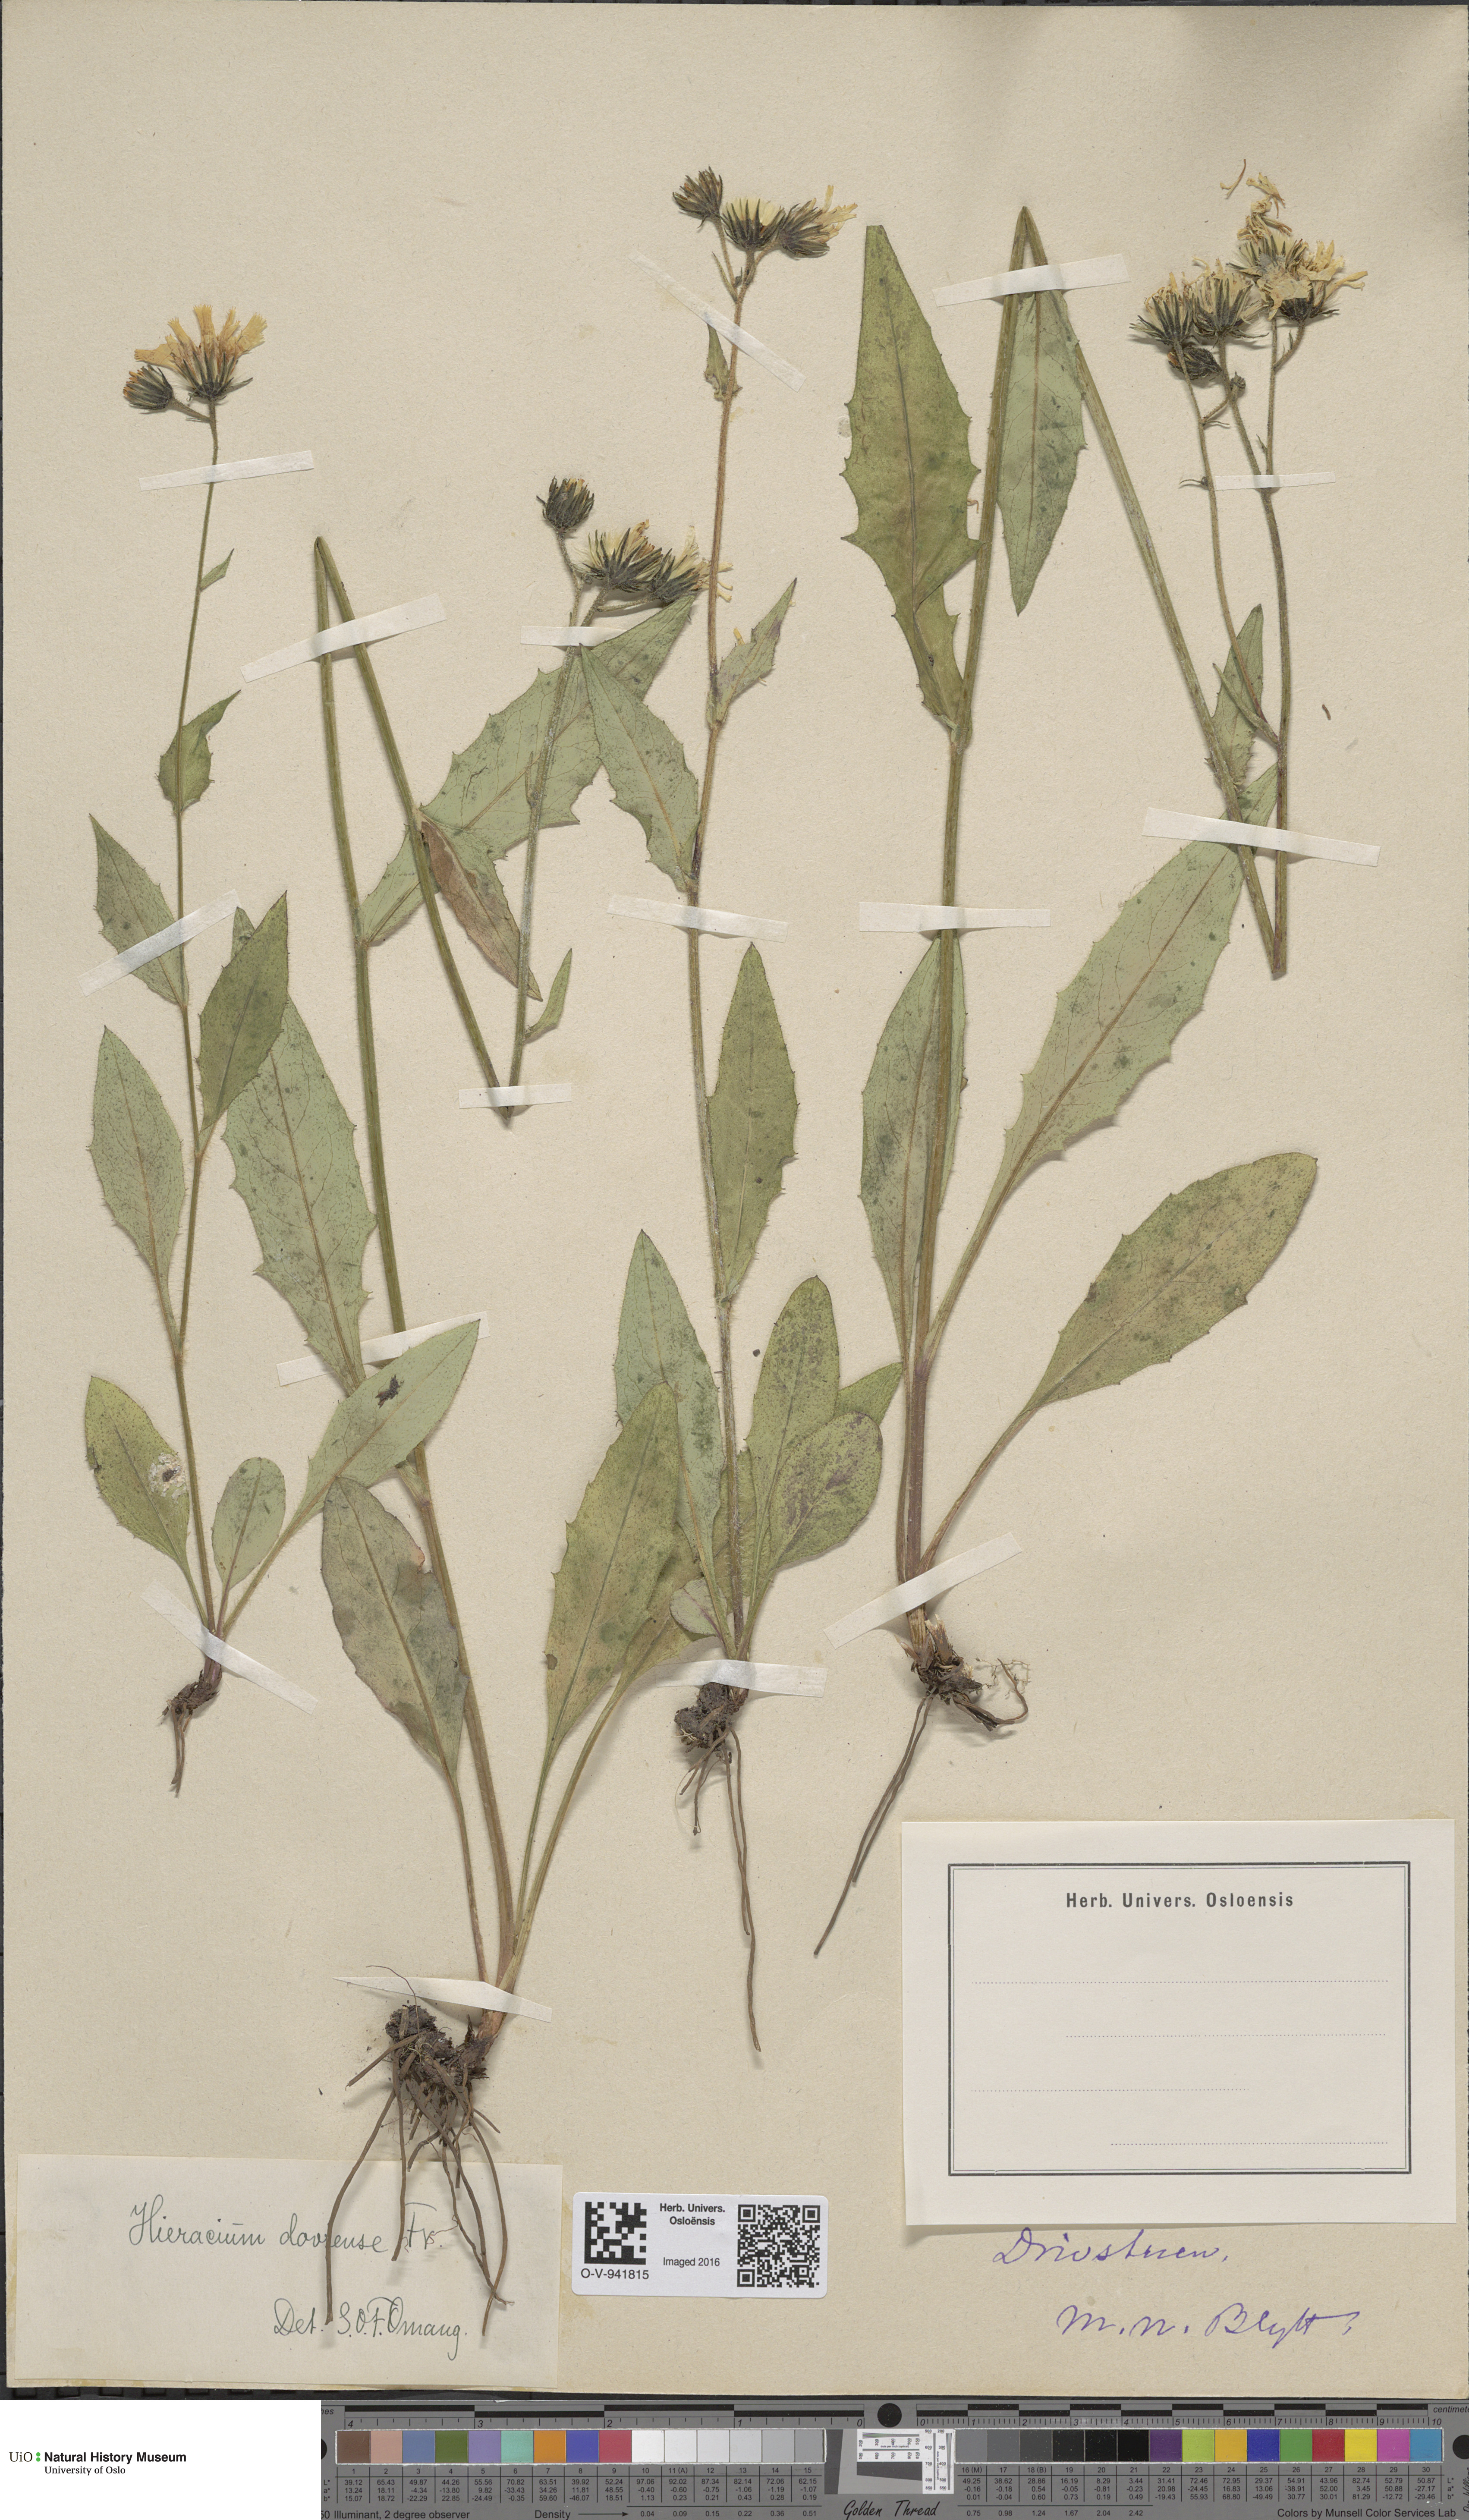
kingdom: Plantae
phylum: Tracheophyta
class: Magnoliopsida
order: Asterales
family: Asteraceae
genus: Hieracium
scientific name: Hieracium dovrense
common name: Dovre hawkweed
